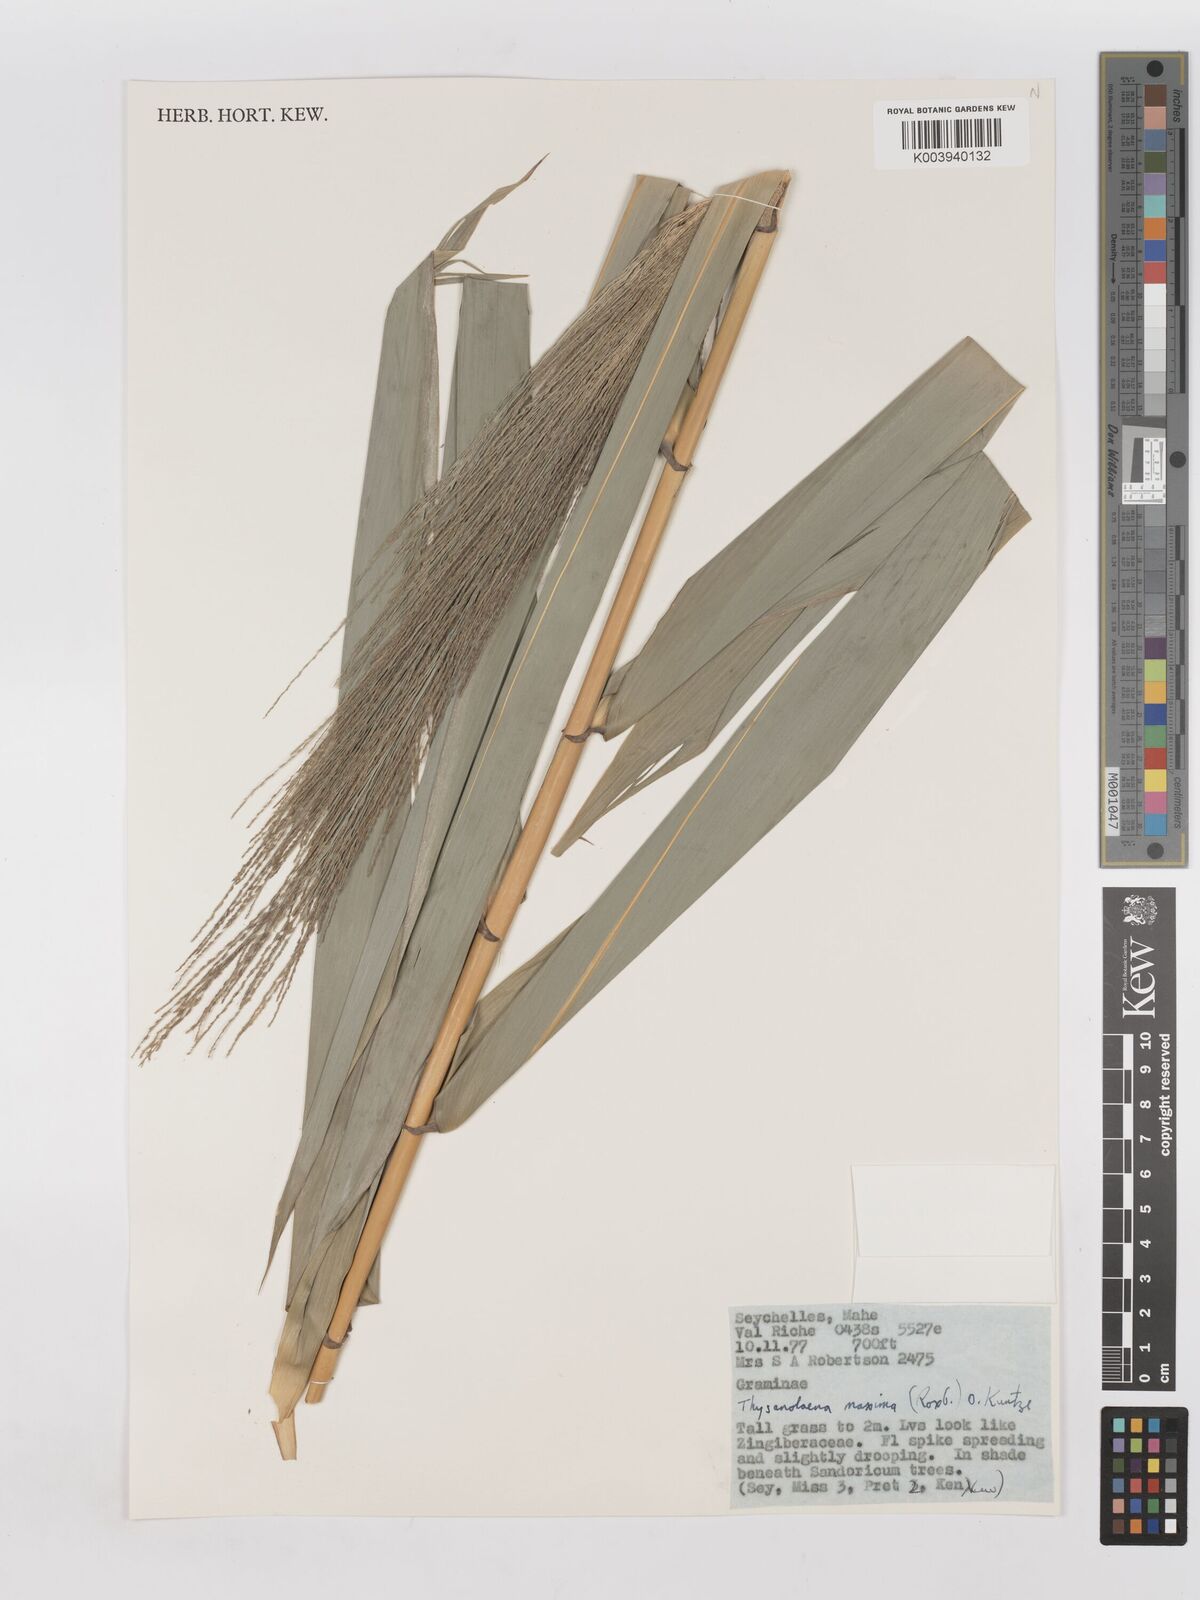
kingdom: Plantae
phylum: Tracheophyta
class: Liliopsida
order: Poales
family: Poaceae
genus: Thysanolaena
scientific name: Thysanolaena latifolia
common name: Tiger grass
